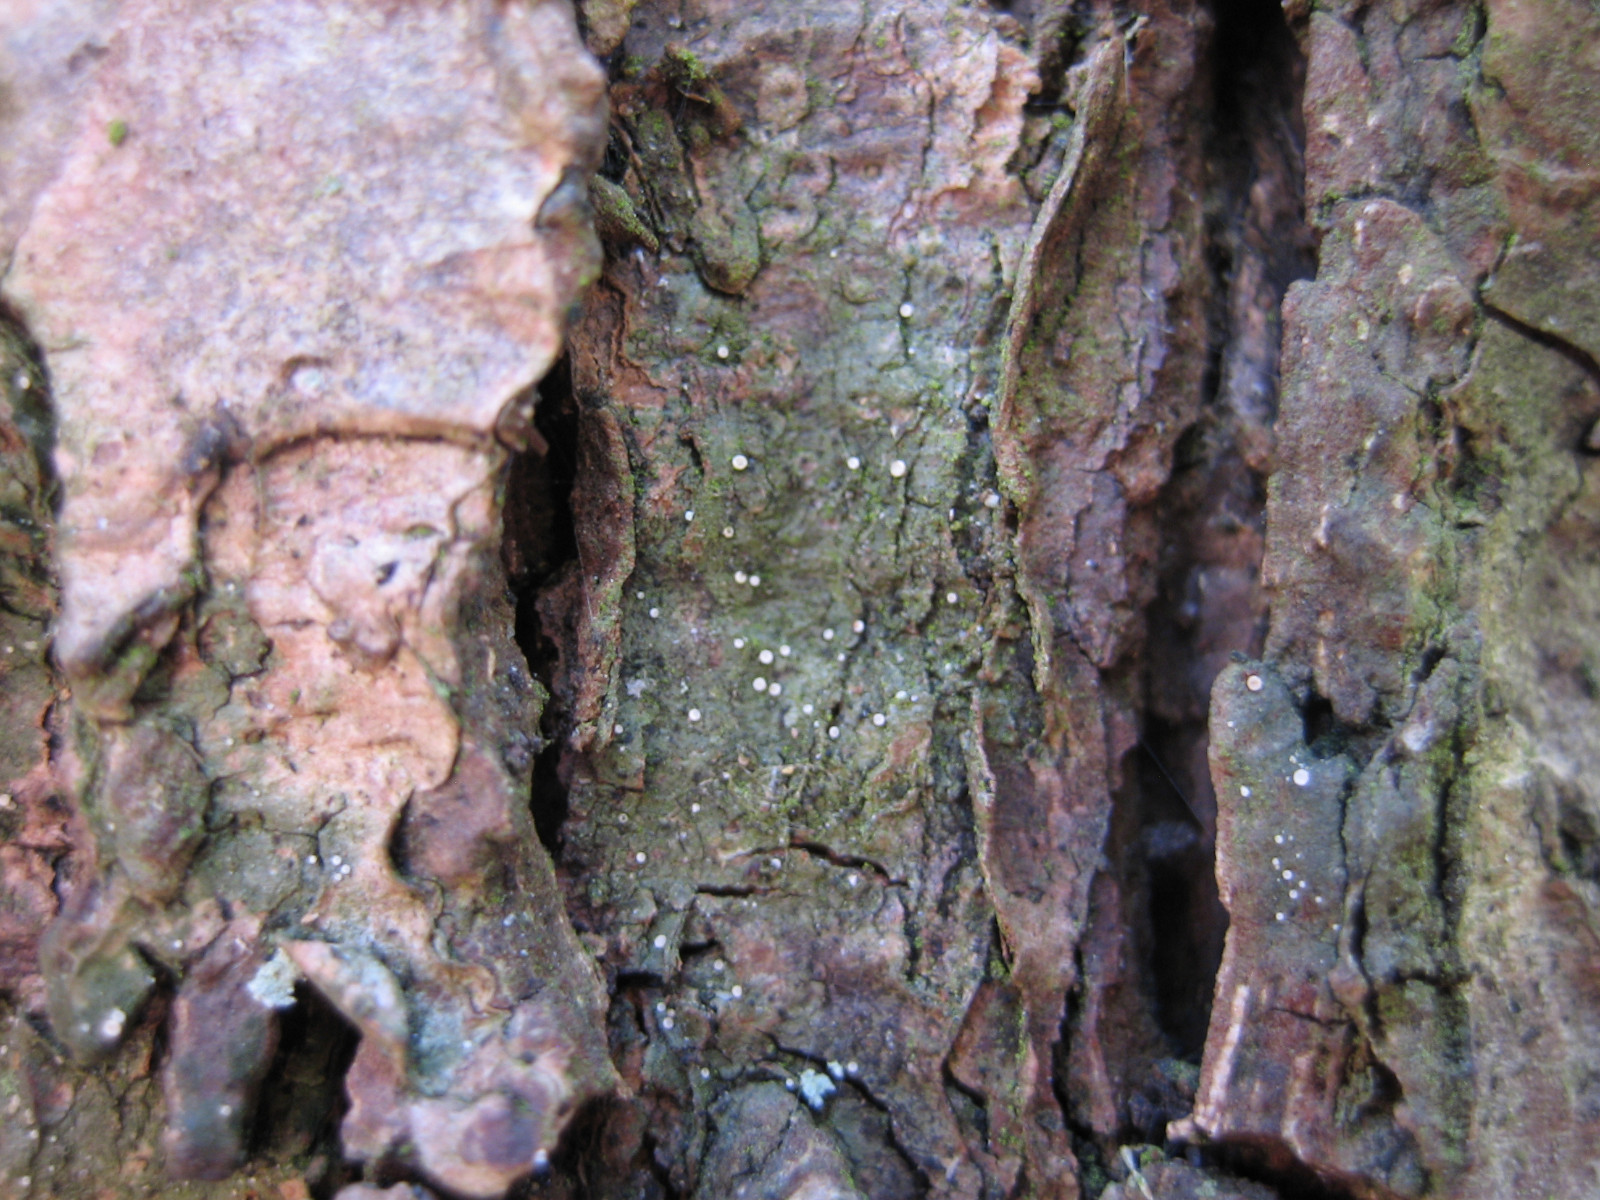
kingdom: Fungi
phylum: Ascomycota
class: Lecanoromycetes
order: Ostropales
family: Coenogoniaceae
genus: Coenogonium
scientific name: Coenogonium pineti
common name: liden vokslav
